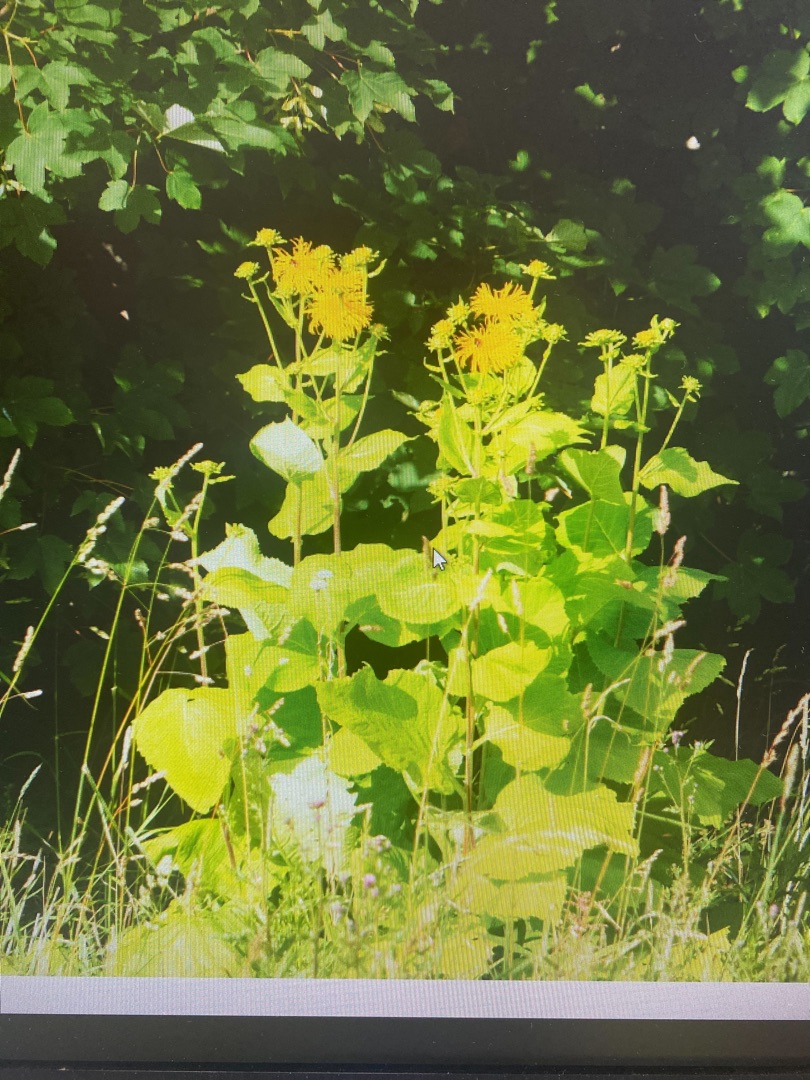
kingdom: Plantae
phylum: Tracheophyta
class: Magnoliopsida
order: Asterales
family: Asteraceae
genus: Telekia
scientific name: Telekia speciosa
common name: Tusindstråle
